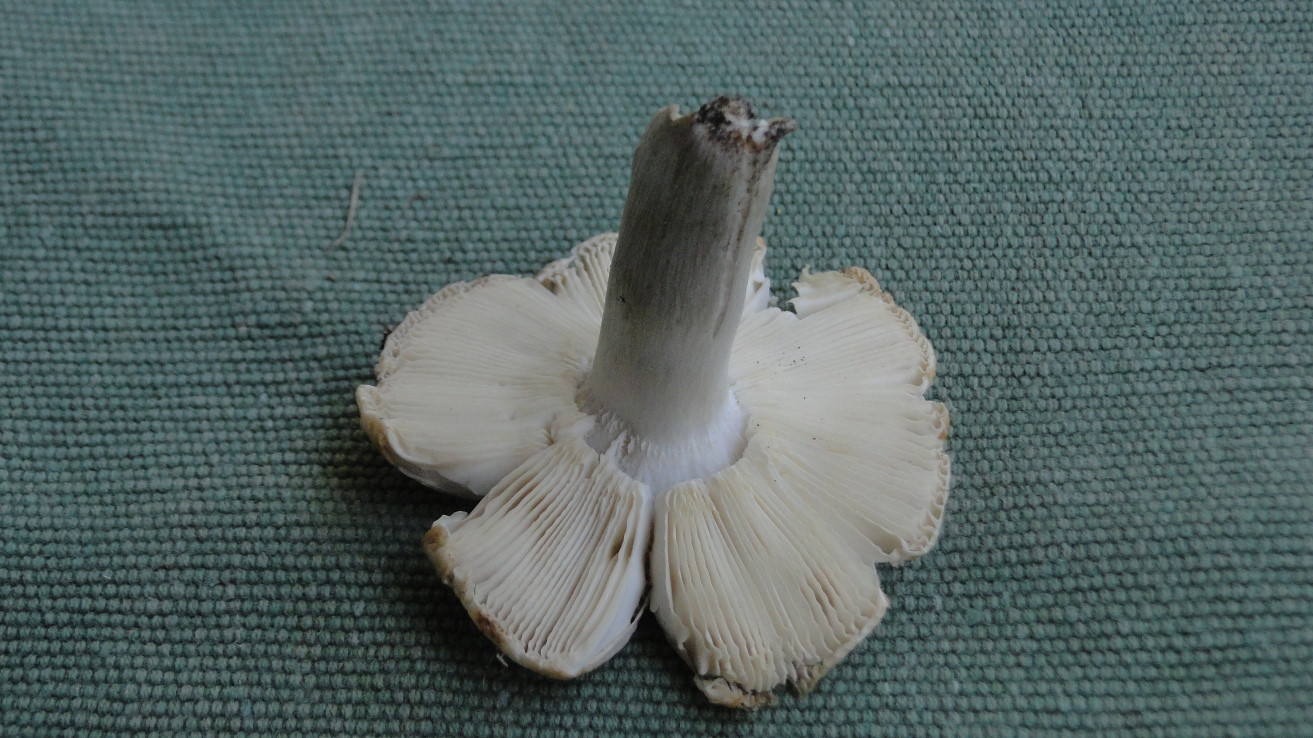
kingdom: Fungi
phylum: Basidiomycota
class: Agaricomycetes
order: Russulales
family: Russulaceae
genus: Russula
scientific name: Russula recondita
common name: mild kam-skørhat
